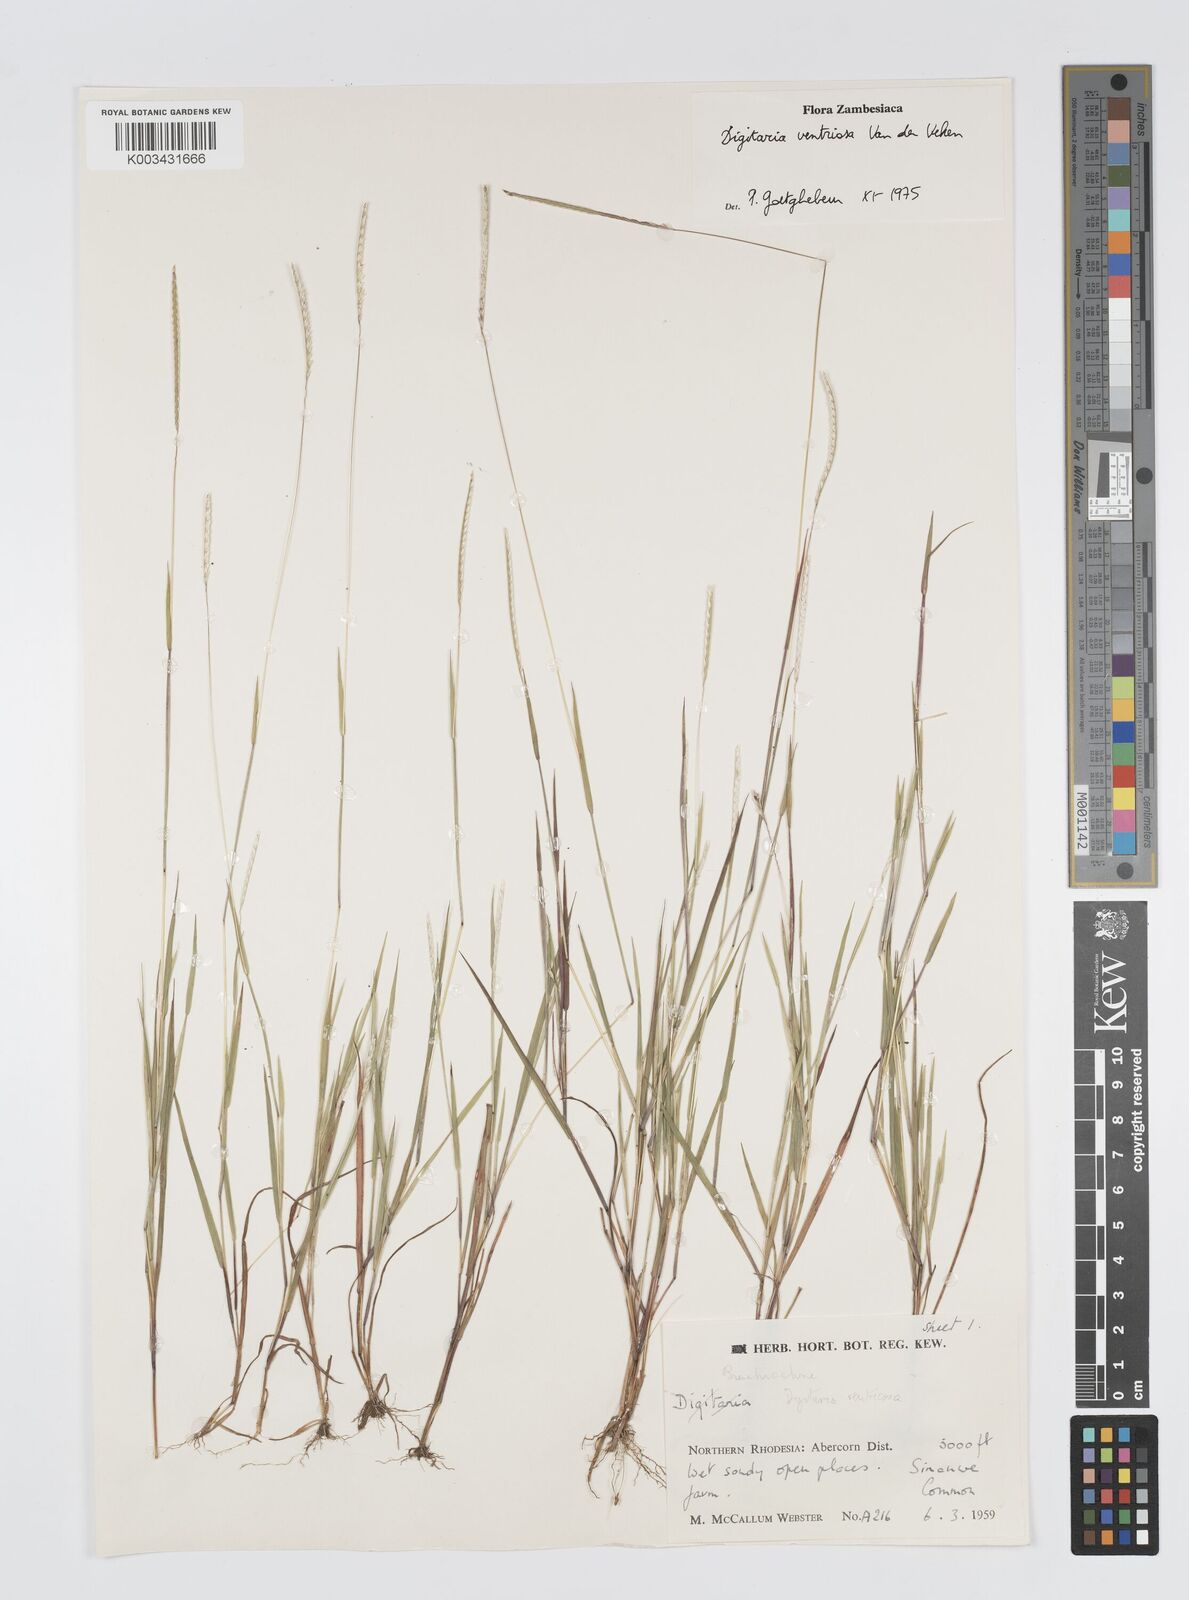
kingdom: Plantae
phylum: Tracheophyta
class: Liliopsida
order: Poales
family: Poaceae
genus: Digitaria
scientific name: Digitaria ventriosa
